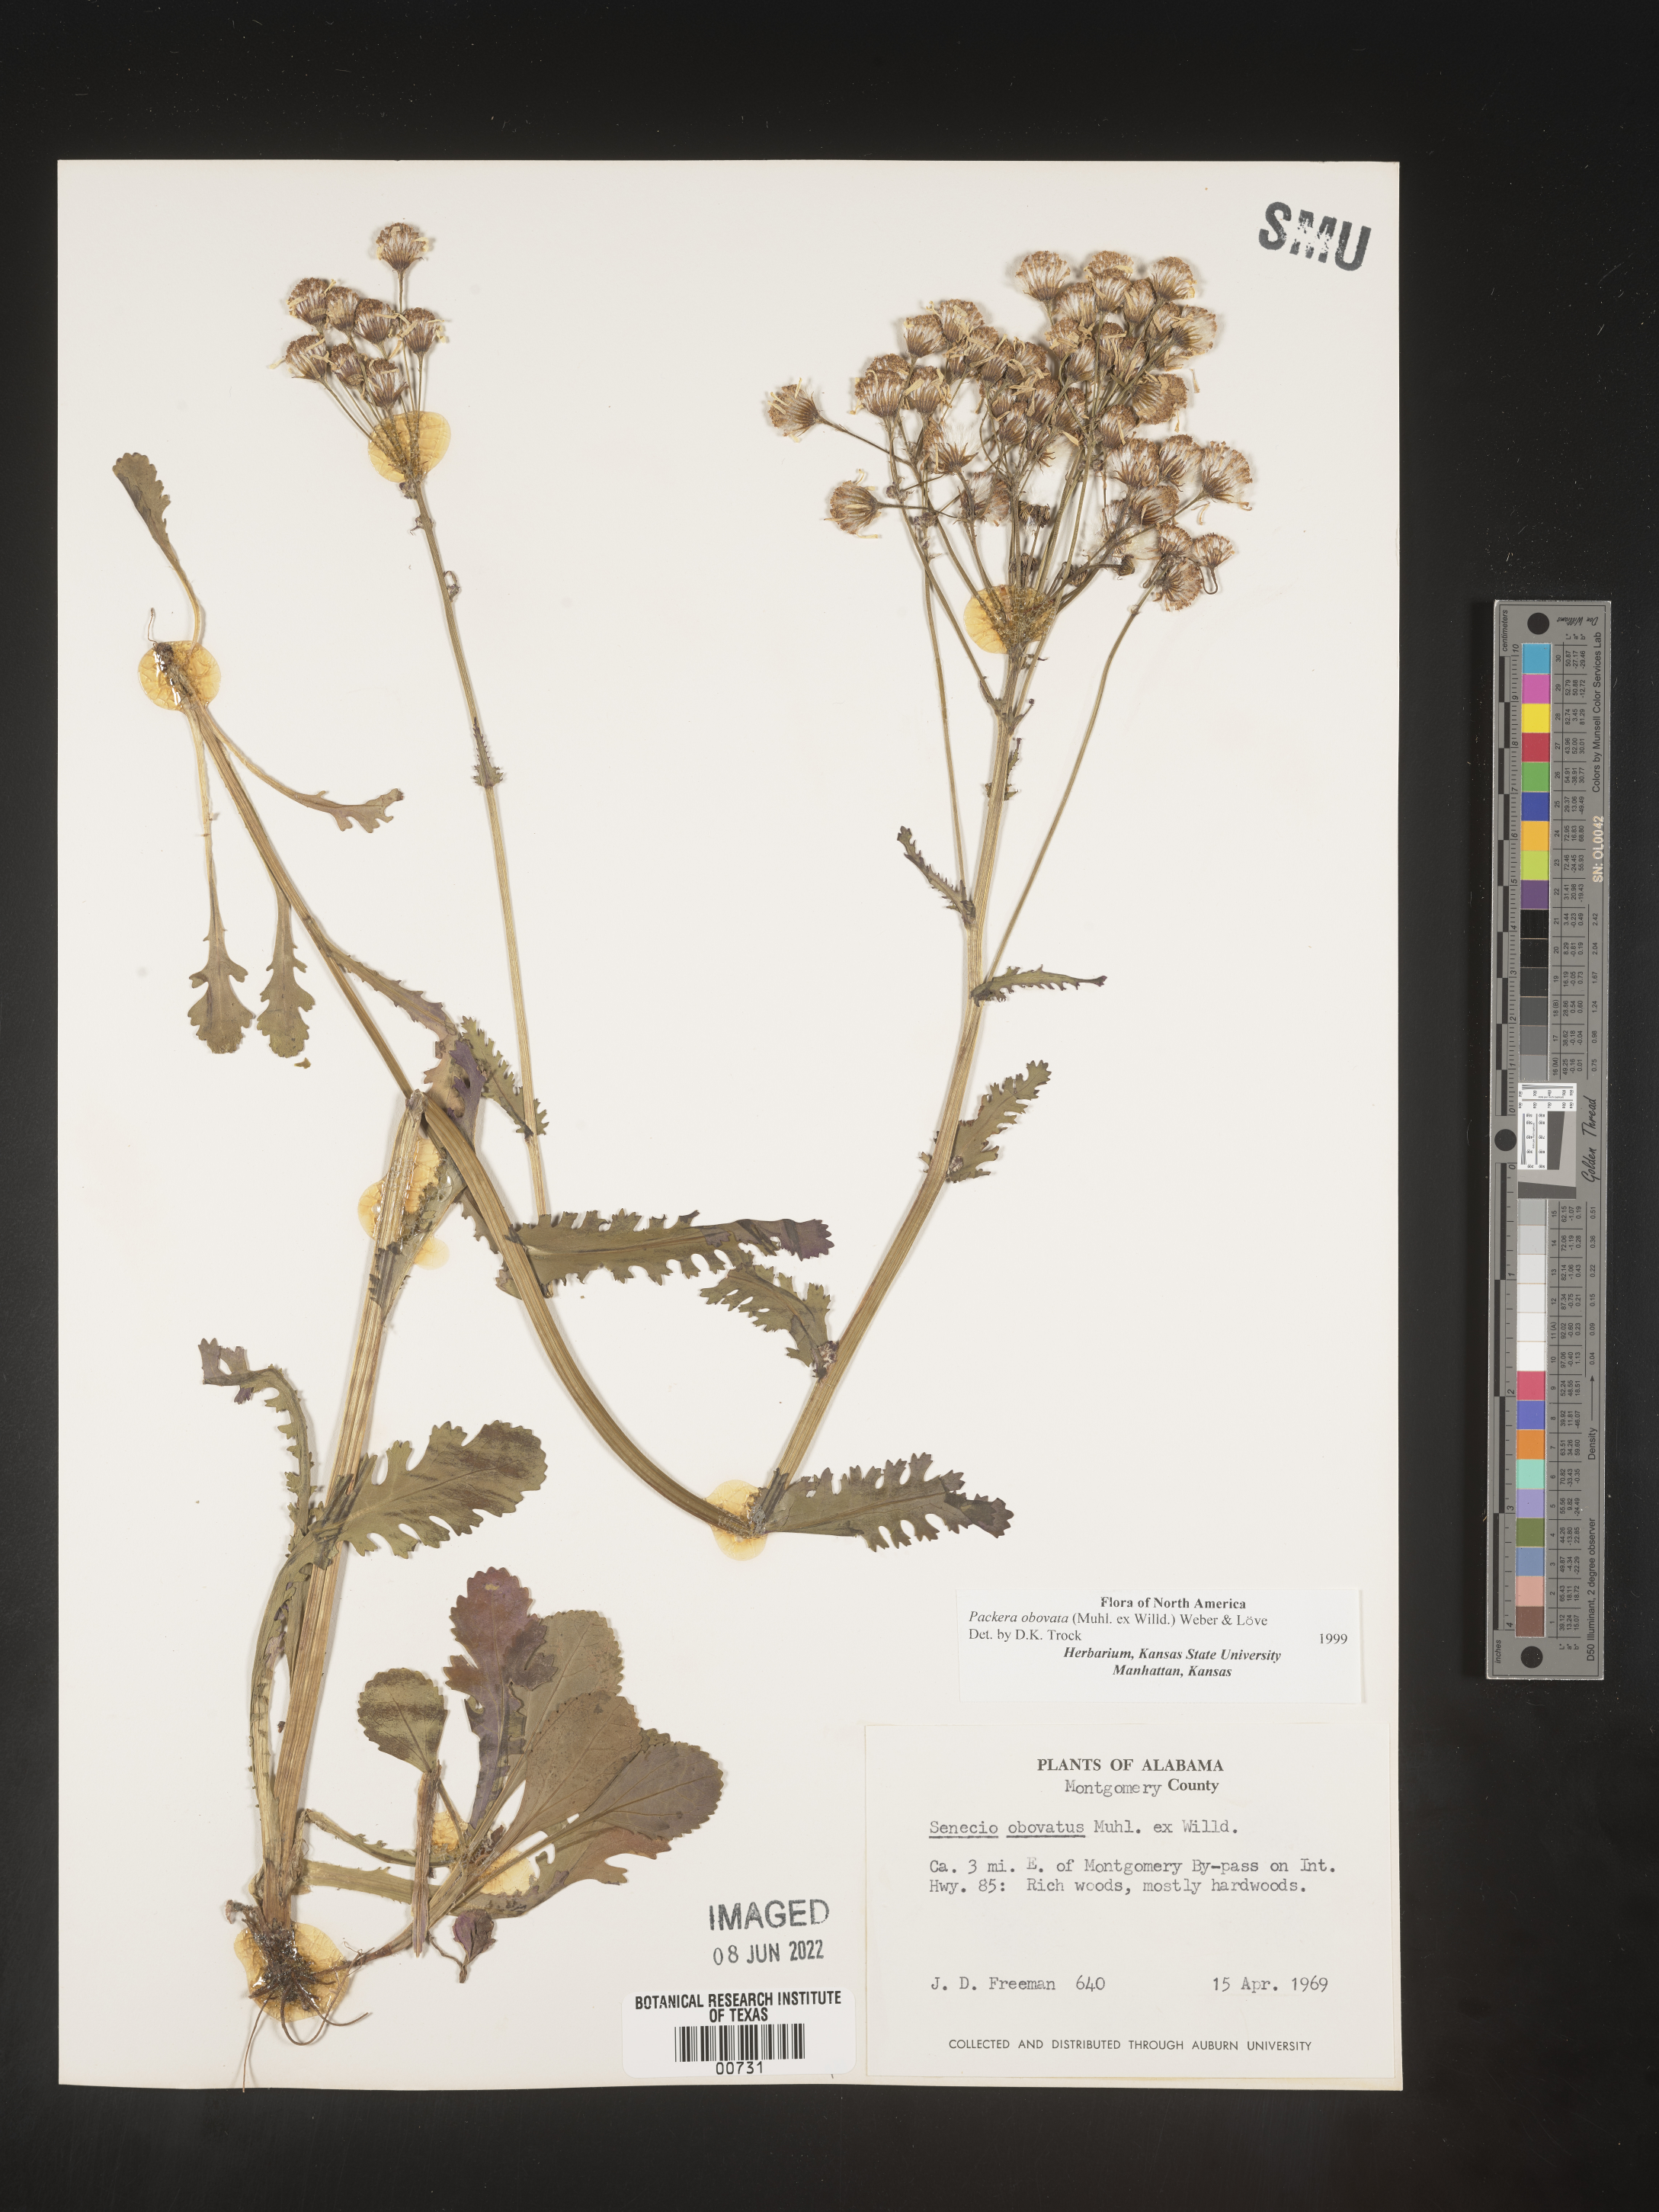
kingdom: Plantae
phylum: Tracheophyta
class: Magnoliopsida
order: Asterales
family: Asteraceae
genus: Packera
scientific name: Packera obovata
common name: Round-leaf ragwort
